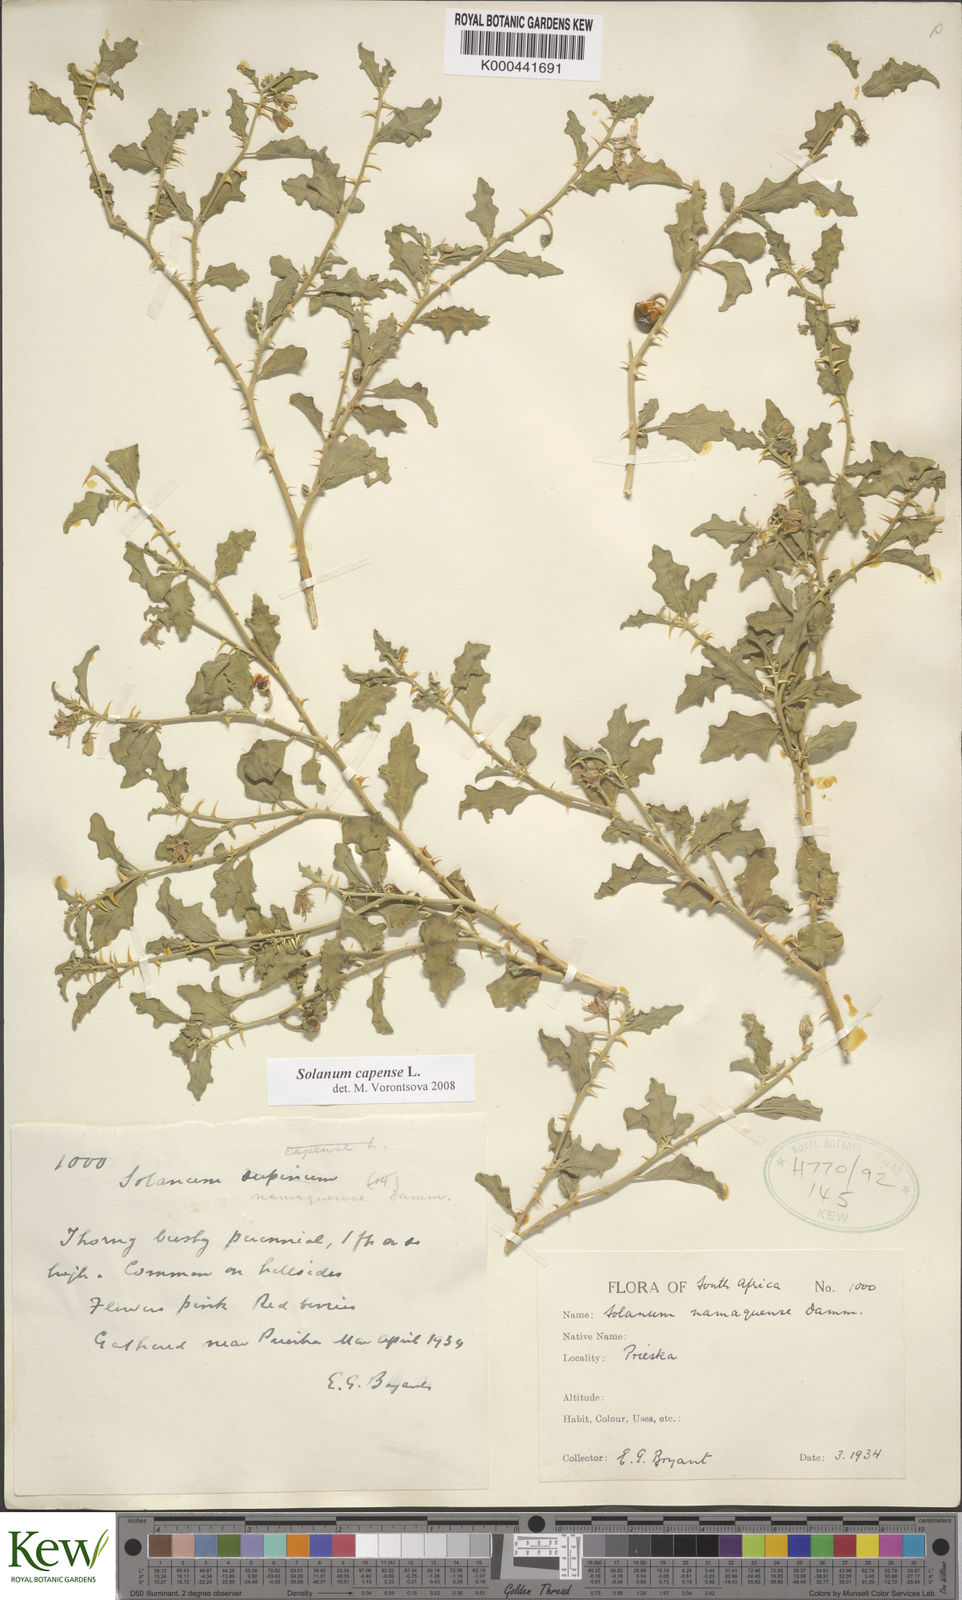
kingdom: Plantae
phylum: Tracheophyta
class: Magnoliopsida
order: Solanales
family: Solanaceae
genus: Solanum
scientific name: Solanum capense
